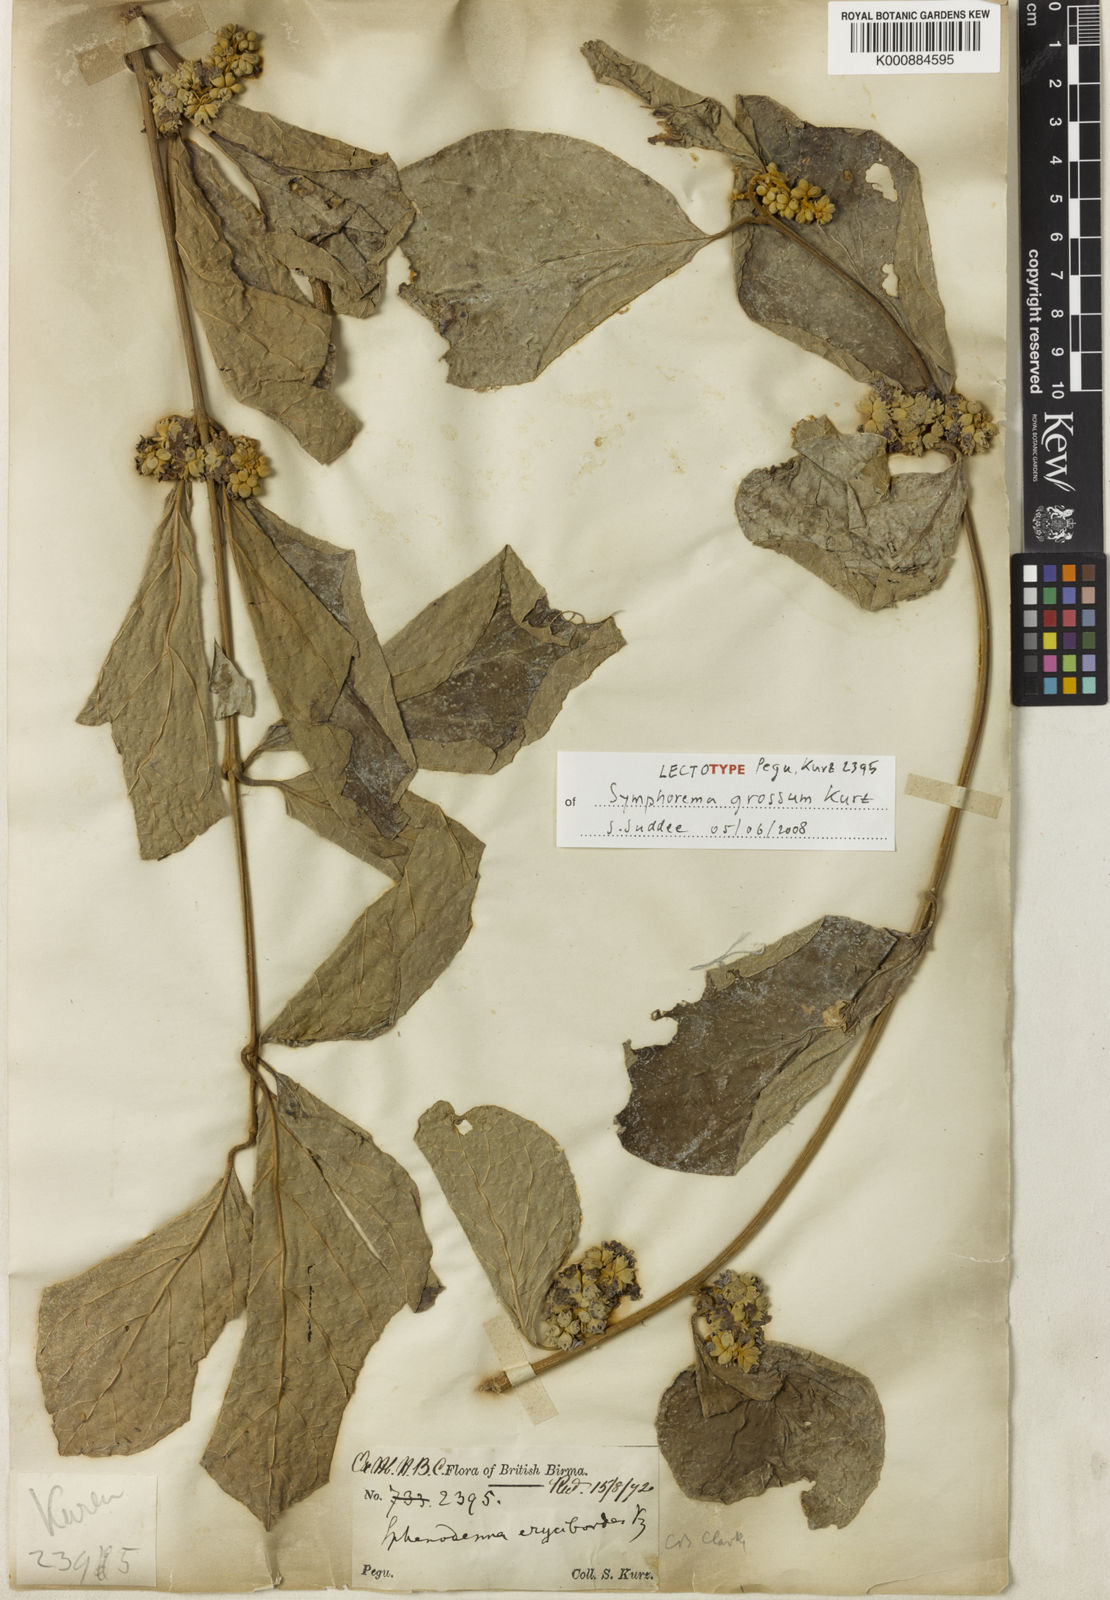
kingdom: Plantae
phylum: Tracheophyta
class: Magnoliopsida
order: Lamiales
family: Lamiaceae
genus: Sphenodesme
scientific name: Sphenodesme eryciboides
